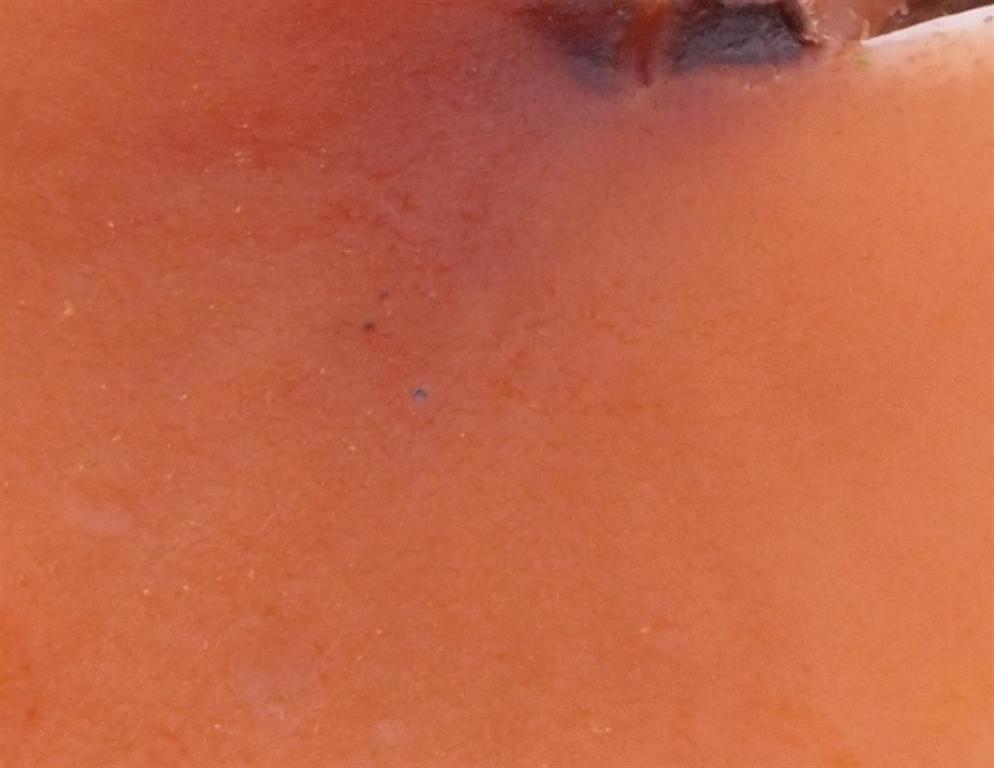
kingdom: Fungi
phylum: Basidiomycota
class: Agaricomycetes
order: Agaricales
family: Hydnangiaceae
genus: Laccaria
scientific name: Laccaria proxima
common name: stor ametysthat
